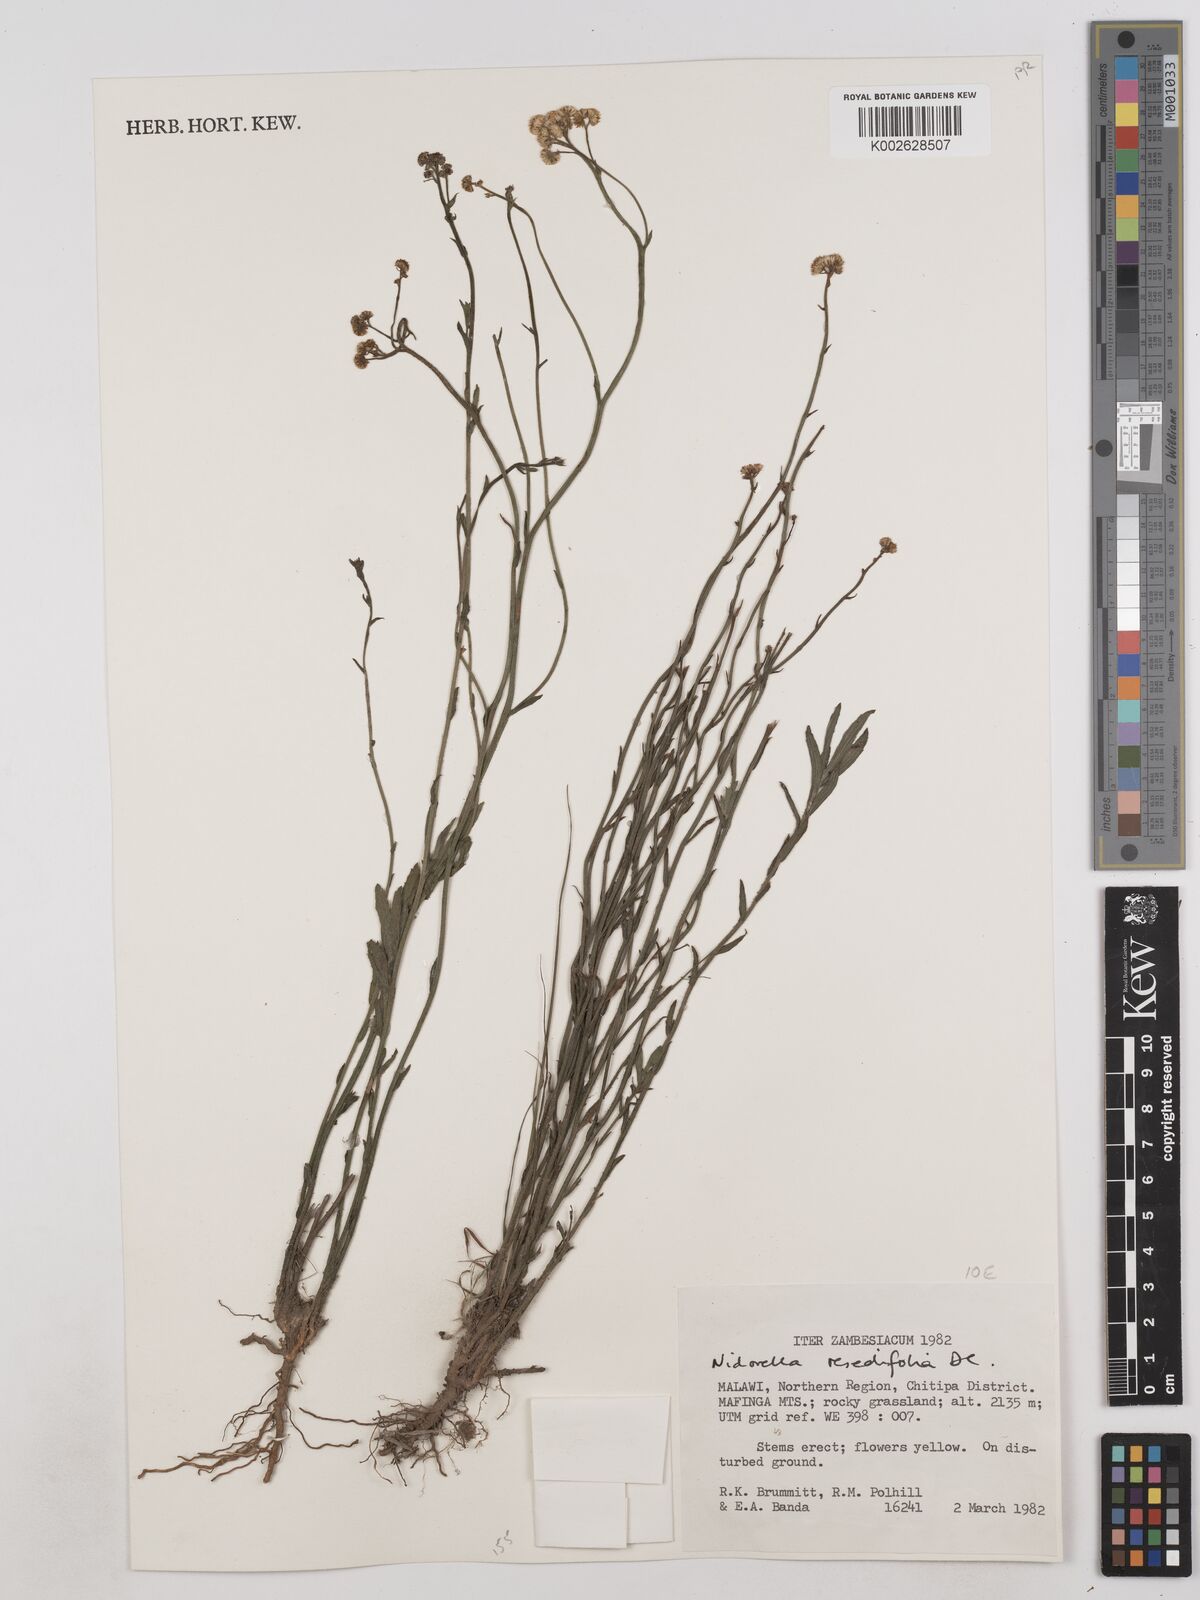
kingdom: Plantae
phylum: Tracheophyta
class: Magnoliopsida
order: Asterales
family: Asteraceae
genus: Nidorella
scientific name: Nidorella spartioides
